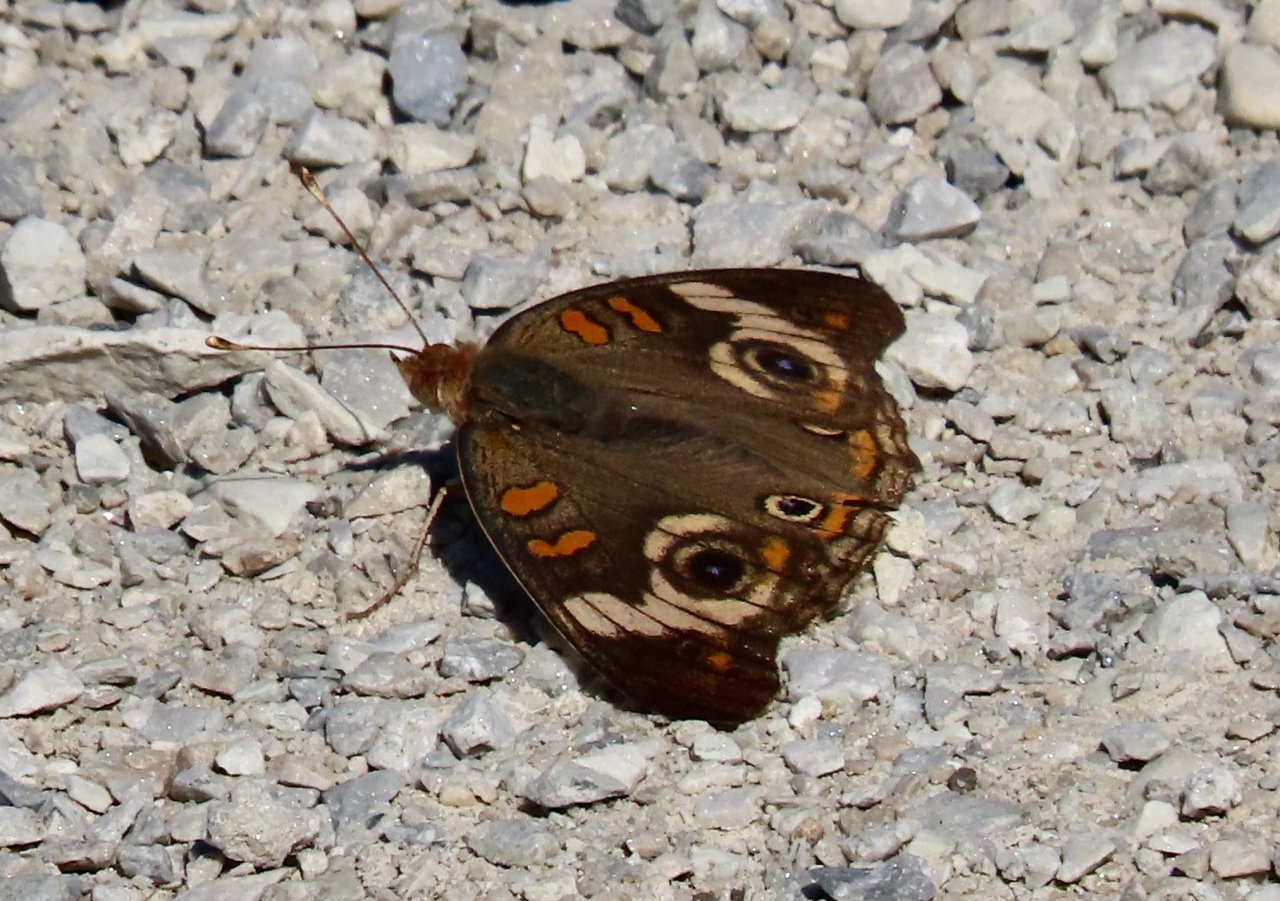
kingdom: Animalia
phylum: Arthropoda
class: Insecta
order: Lepidoptera
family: Nymphalidae
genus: Junonia
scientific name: Junonia coenia
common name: Common Buckeye
